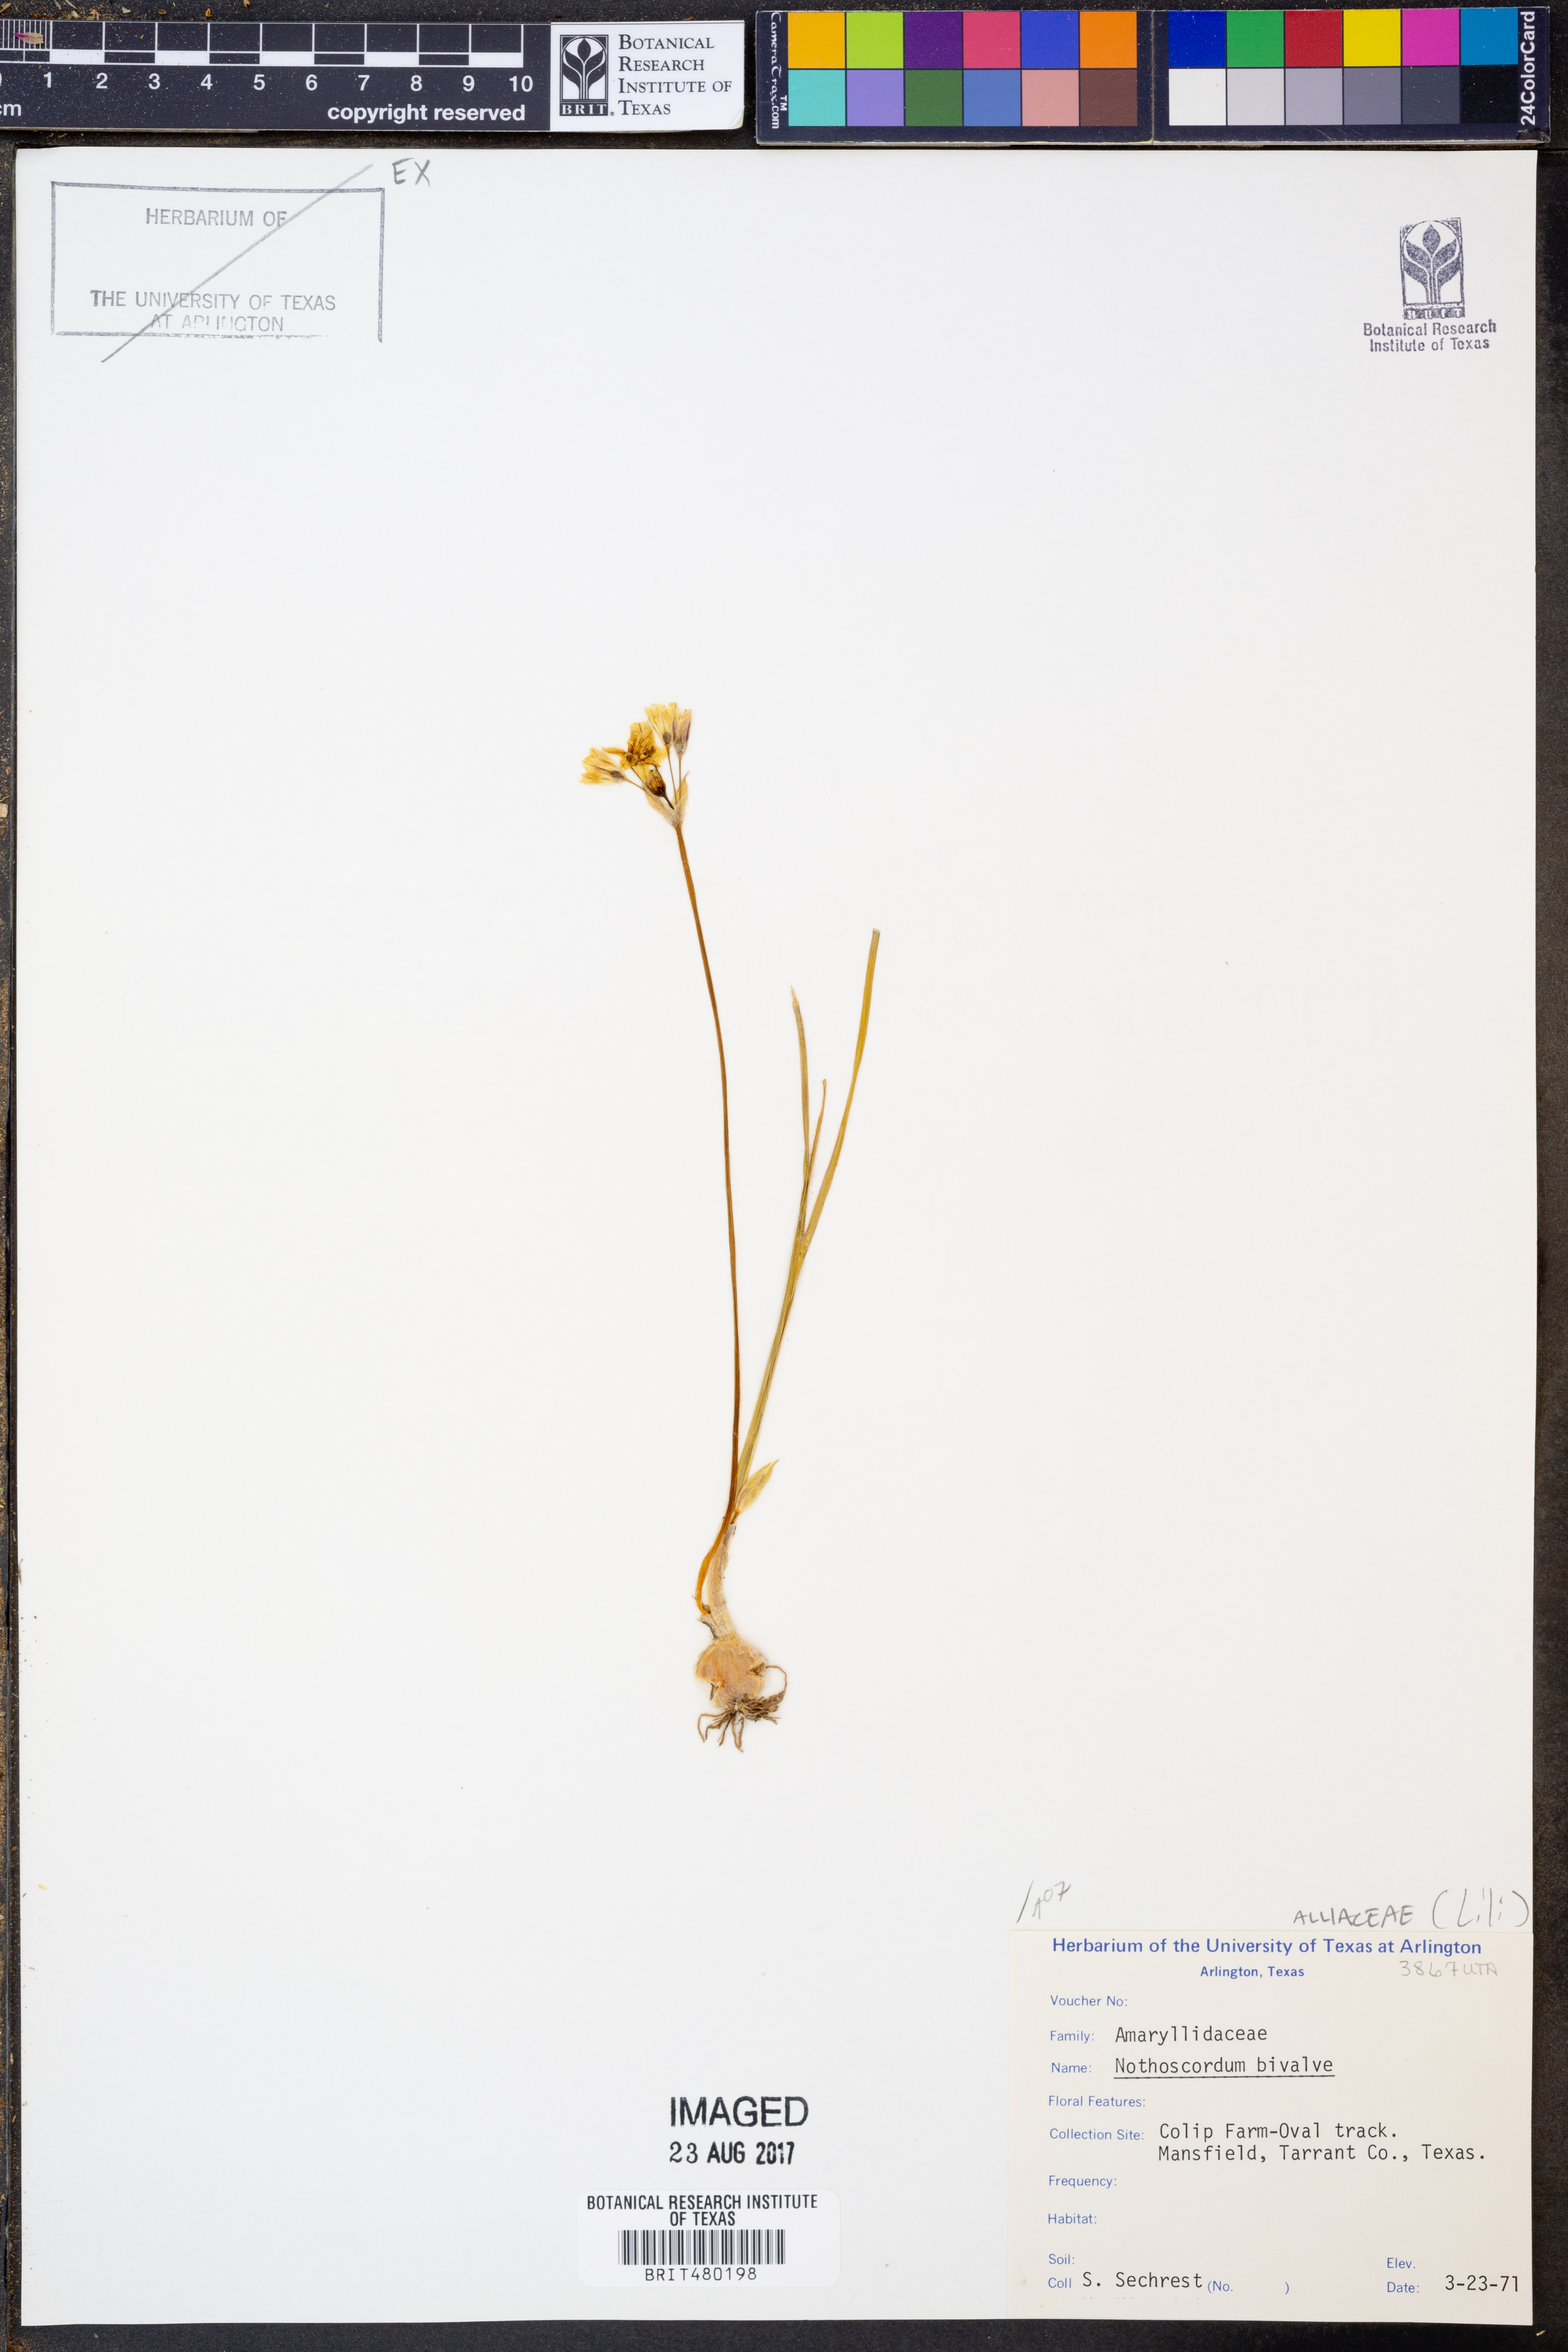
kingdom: Plantae
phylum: Tracheophyta
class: Liliopsida
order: Asparagales
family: Amaryllidaceae
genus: Nothoscordum
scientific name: Nothoscordum bivalve
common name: Crow-poison
